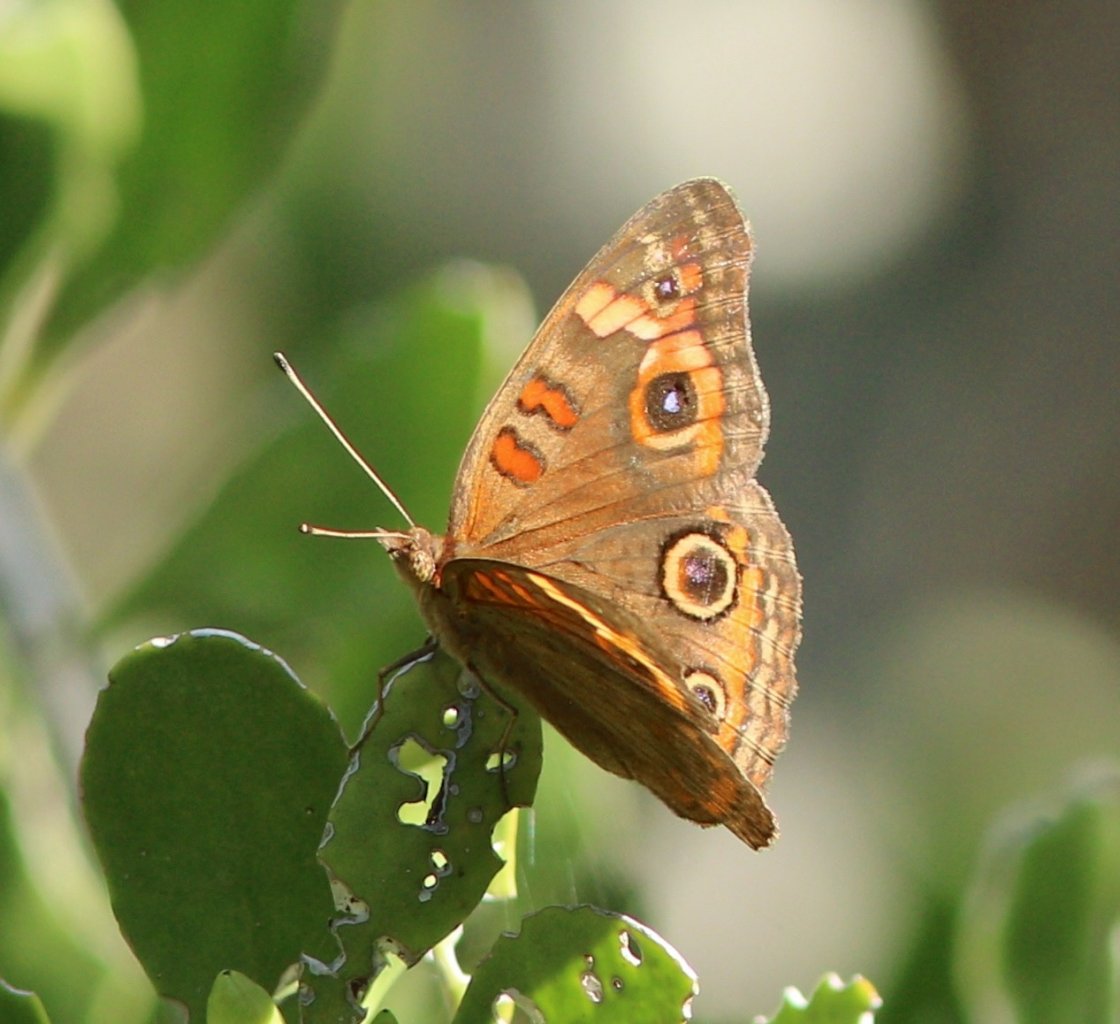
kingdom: Animalia
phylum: Arthropoda
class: Insecta
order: Lepidoptera
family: Nymphalidae
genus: Junonia
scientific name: Junonia evarete
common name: Mangrove Buckeye
